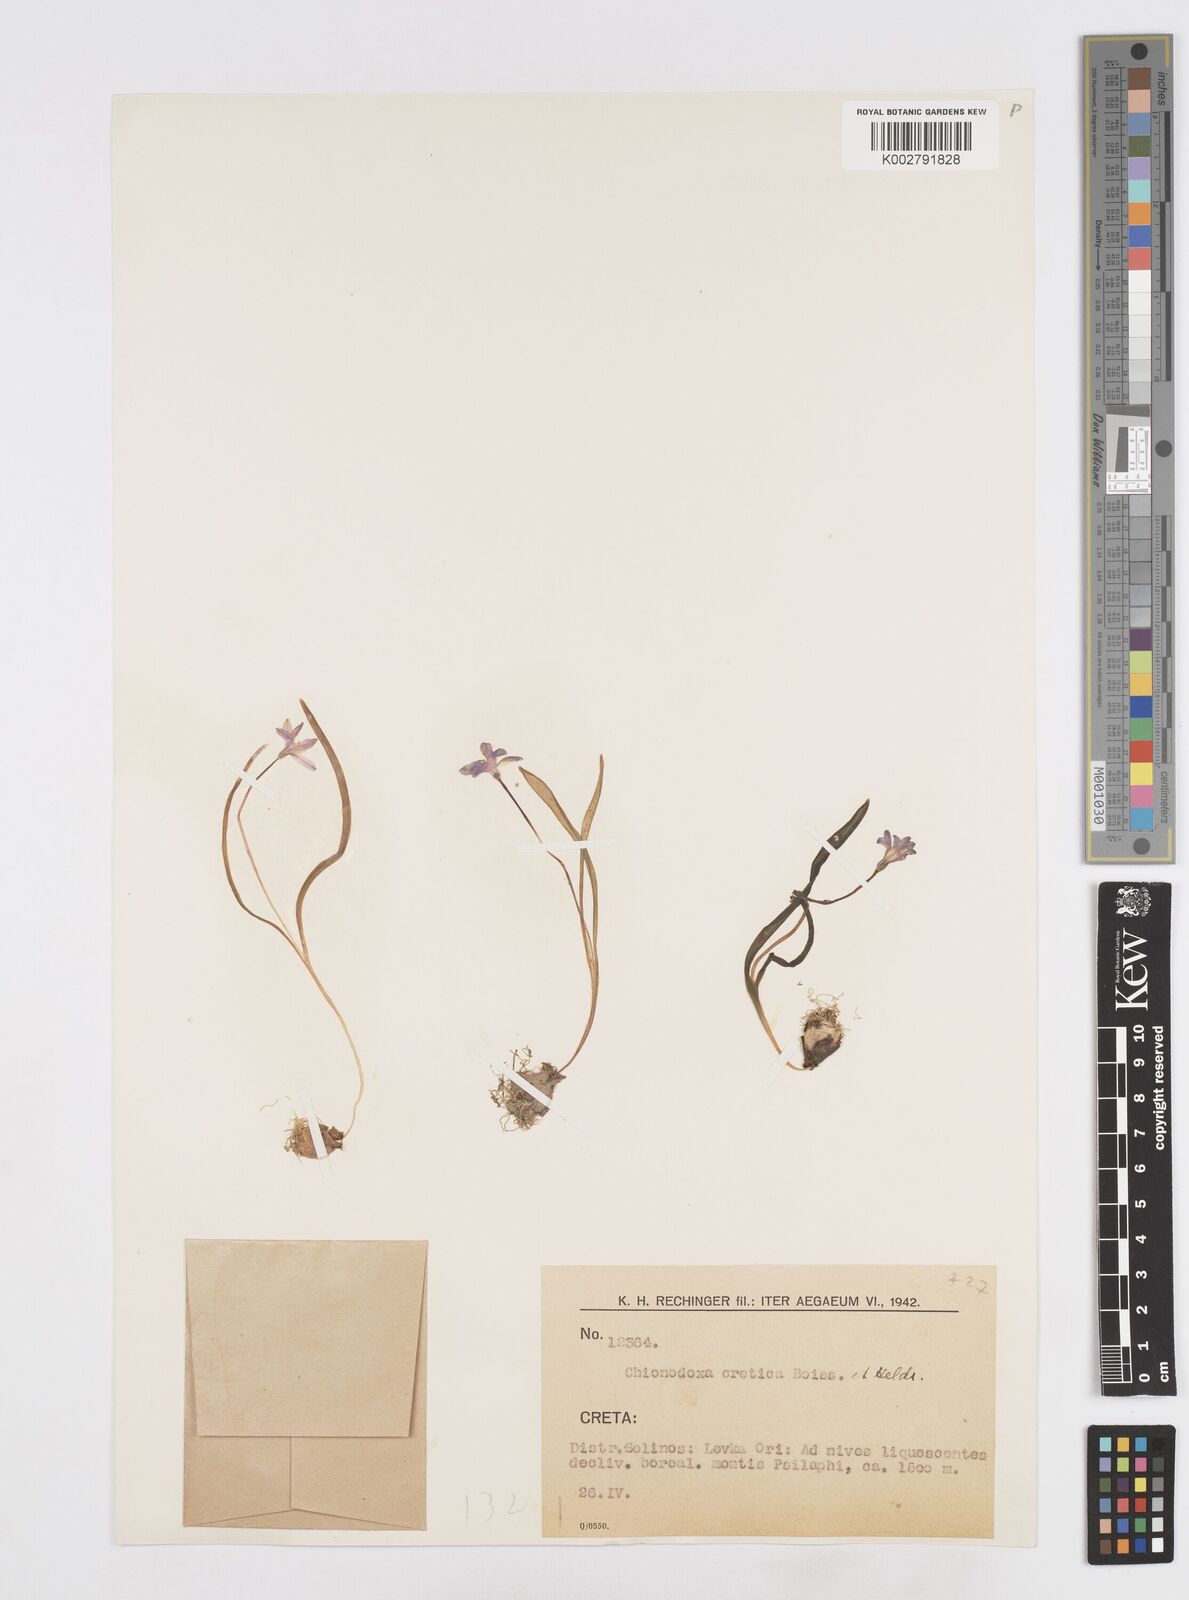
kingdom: Plantae
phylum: Tracheophyta
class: Liliopsida
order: Asparagales
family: Asparagaceae
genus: Scilla
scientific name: Scilla cretica
